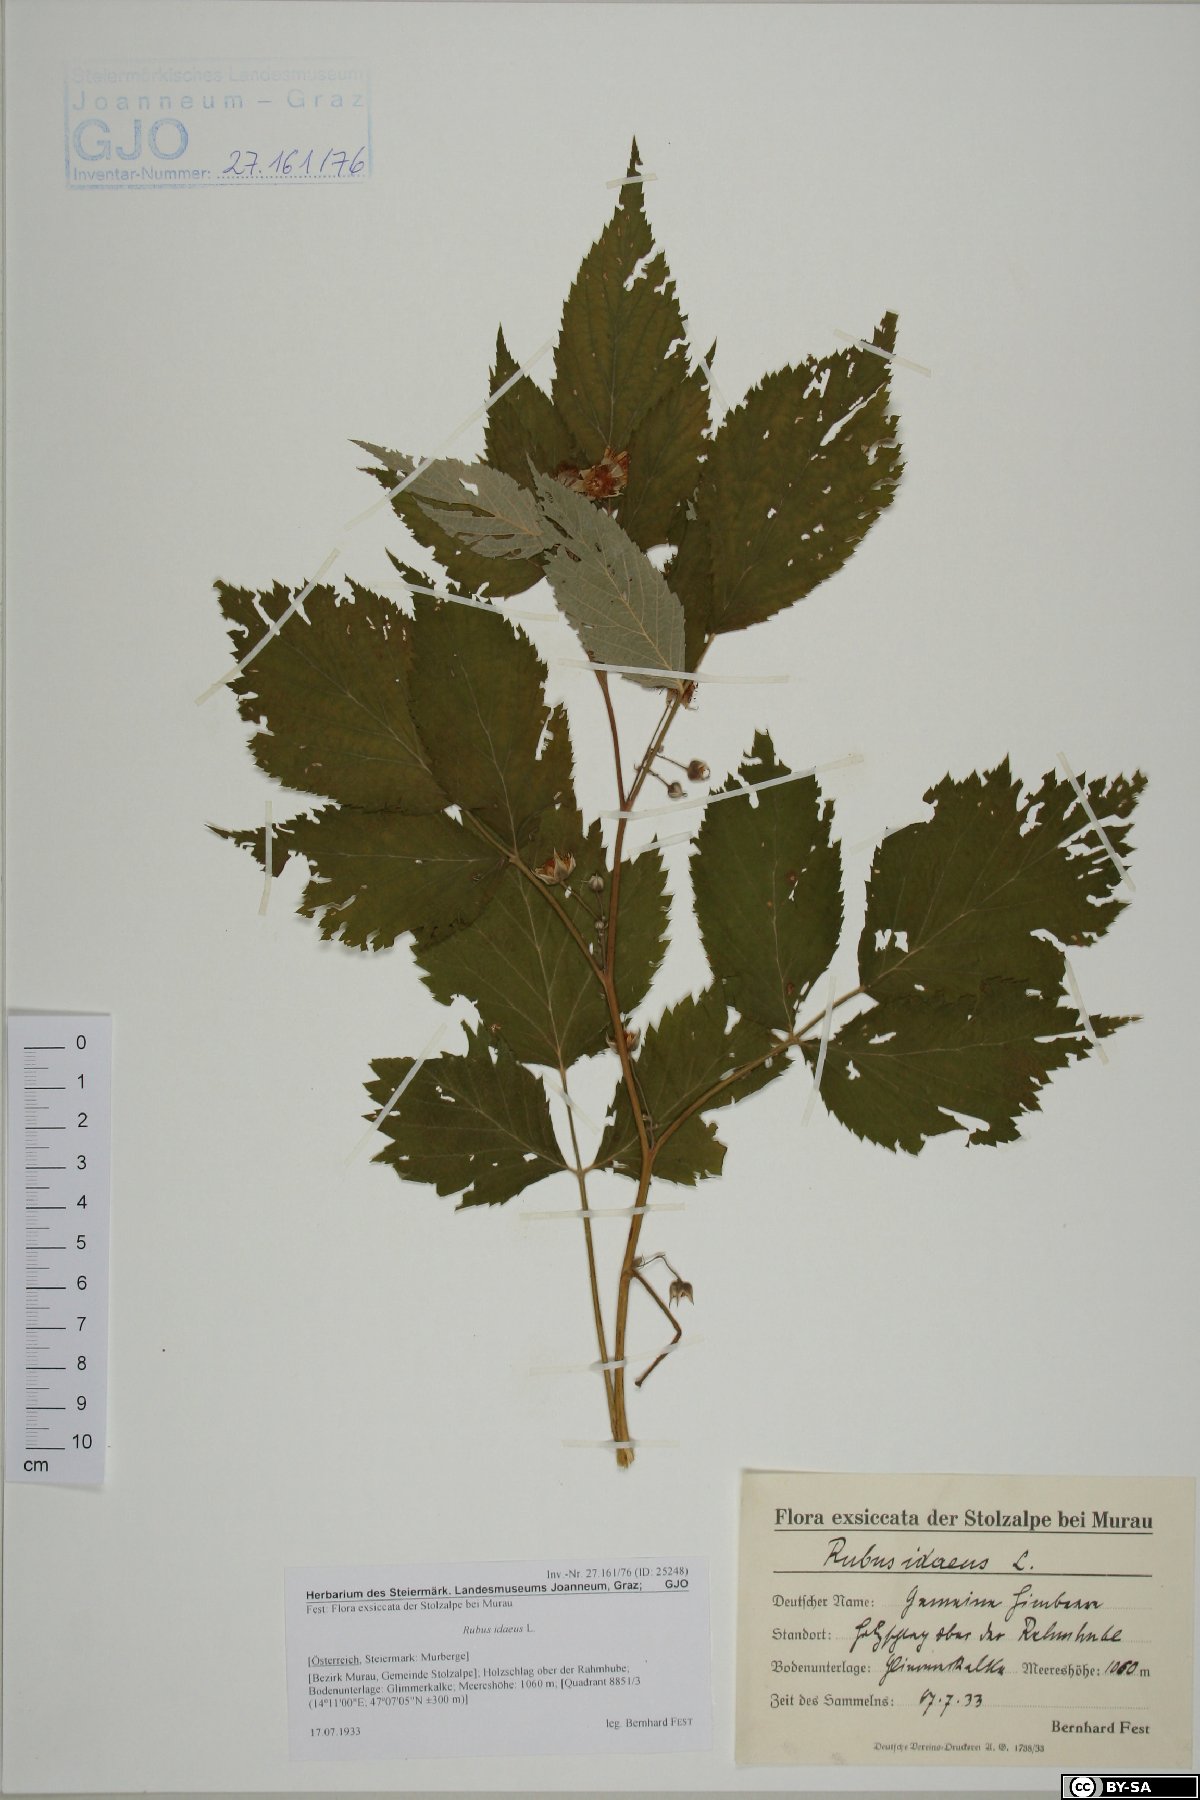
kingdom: Plantae
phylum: Tracheophyta
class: Magnoliopsida
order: Rosales
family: Rosaceae
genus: Rubus
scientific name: Rubus idaeus
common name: Raspberry
